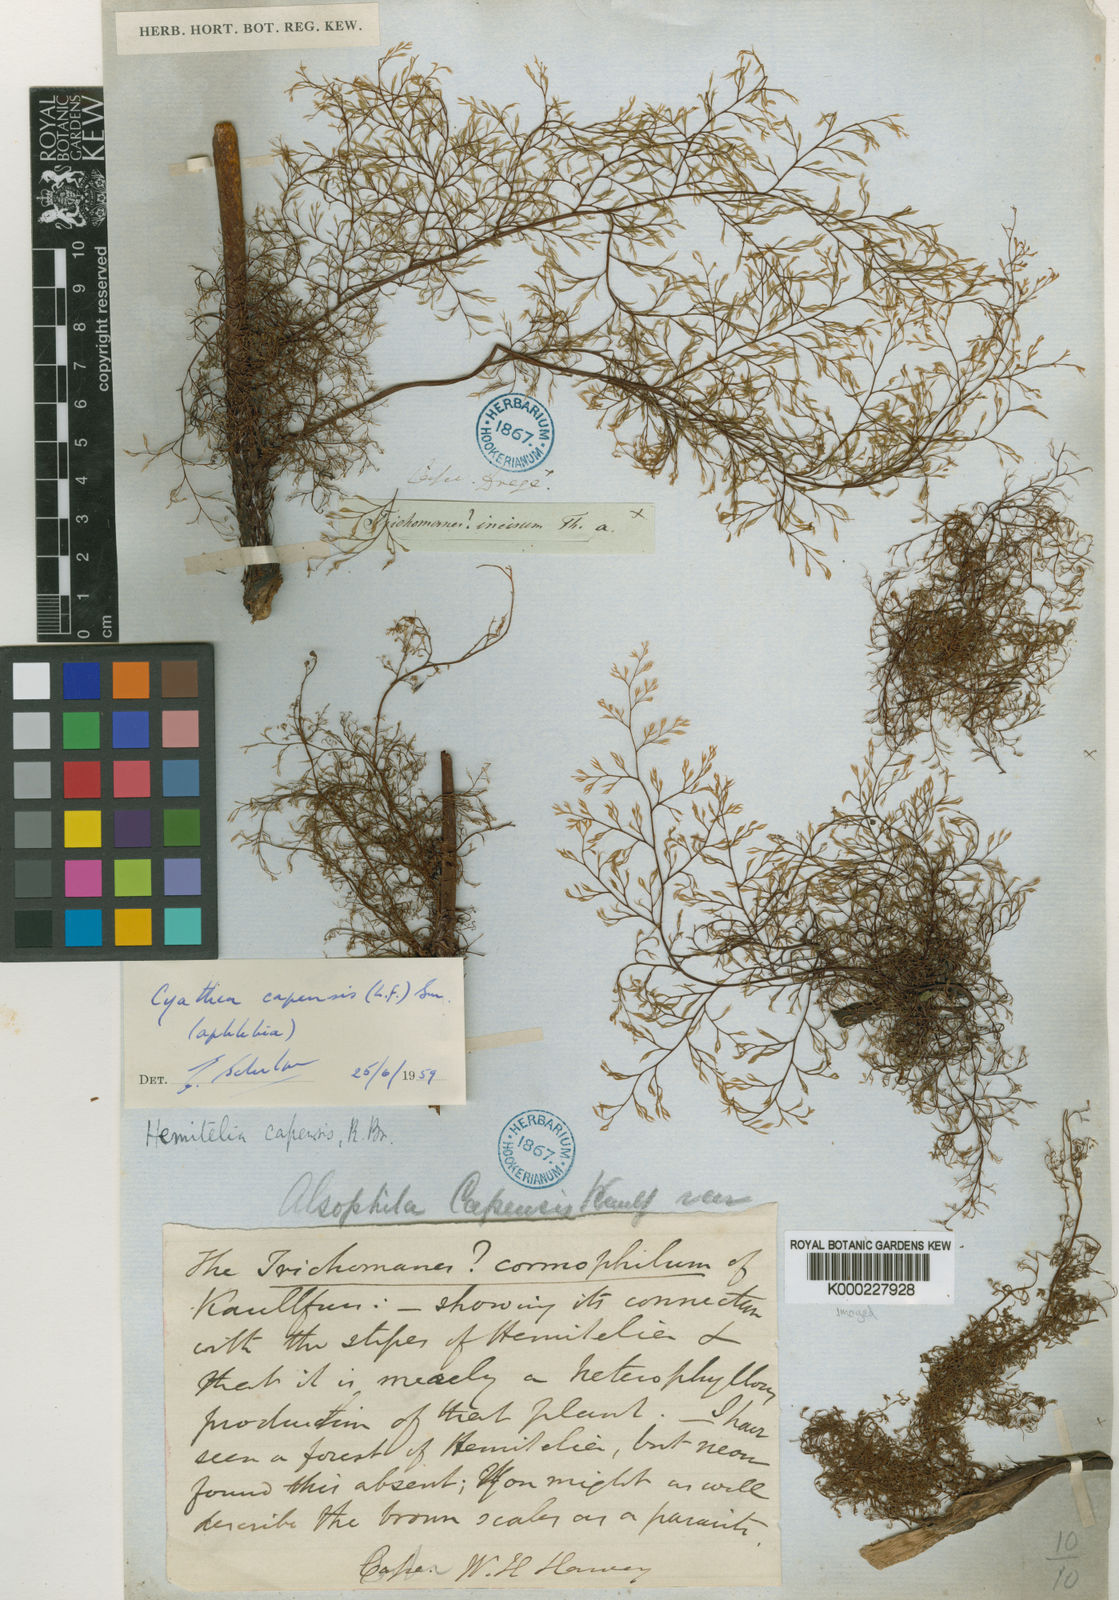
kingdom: Plantae
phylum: Tracheophyta
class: Polypodiopsida
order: Cyatheales
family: Cyatheaceae
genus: Gymnosphaera
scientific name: Gymnosphaera capensis
